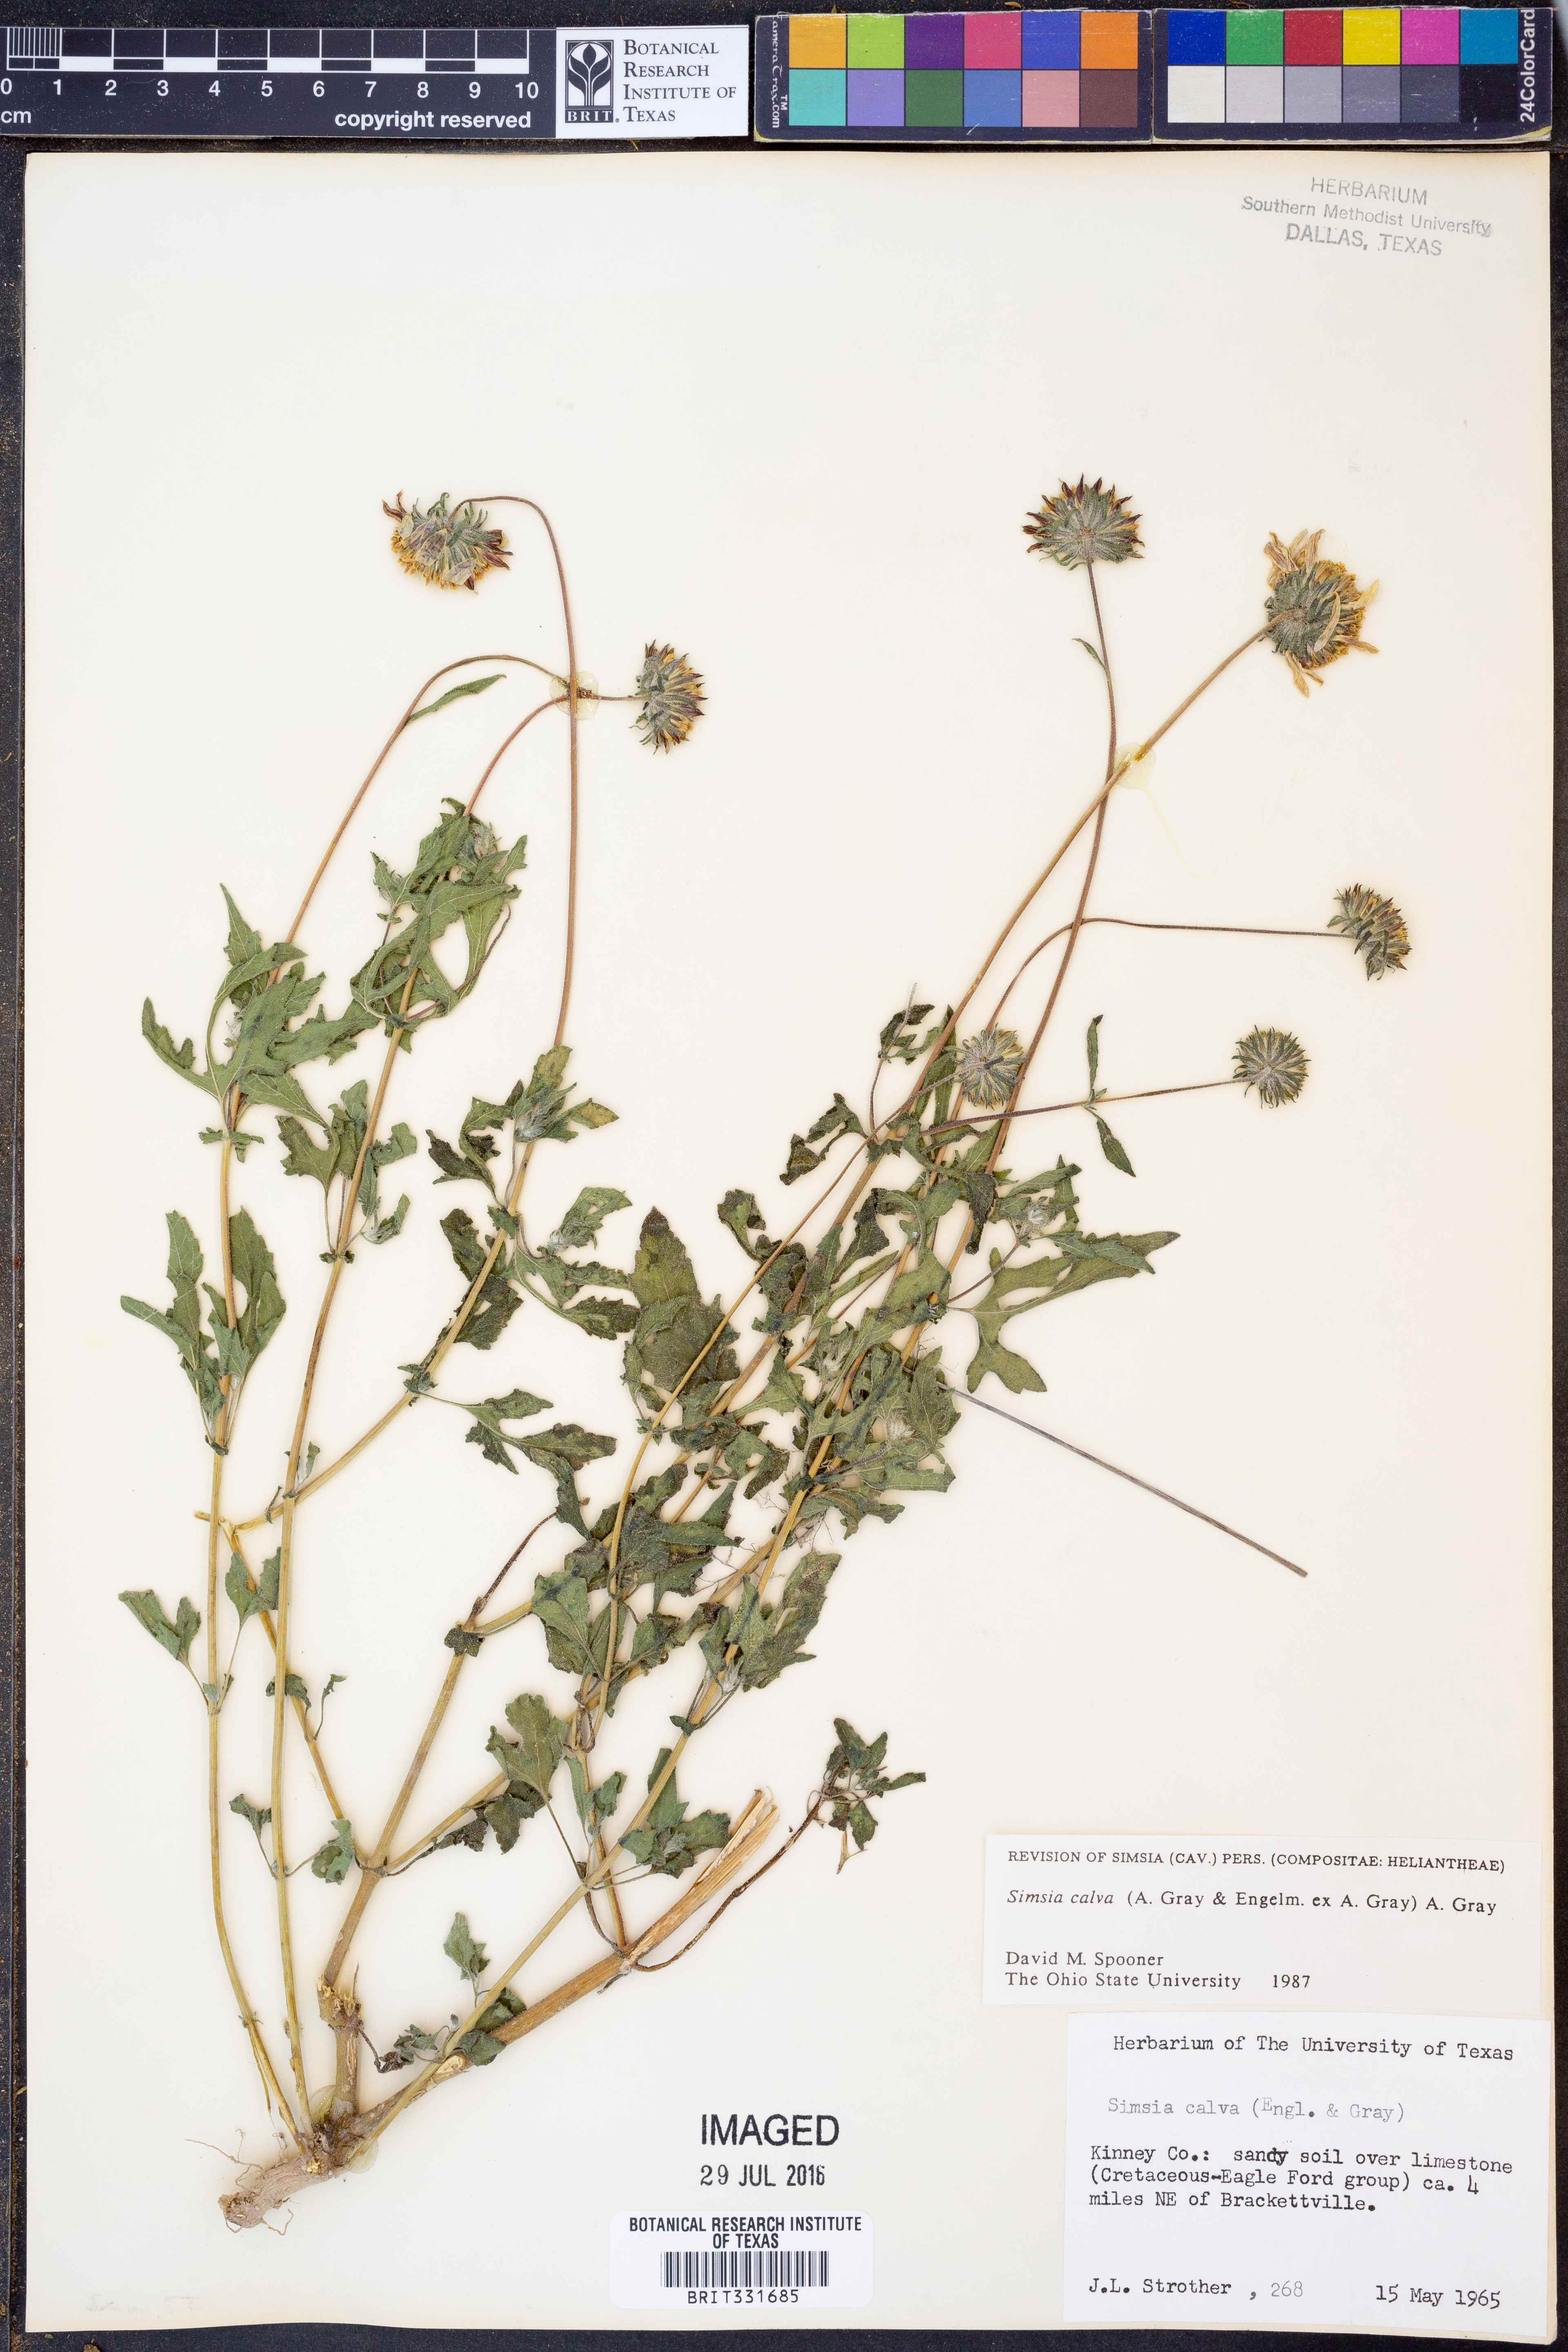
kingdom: Plantae
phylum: Tracheophyta
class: Magnoliopsida
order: Asterales
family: Asteraceae
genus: Simsia
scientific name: Simsia calva
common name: Awnless bush-sunflower
